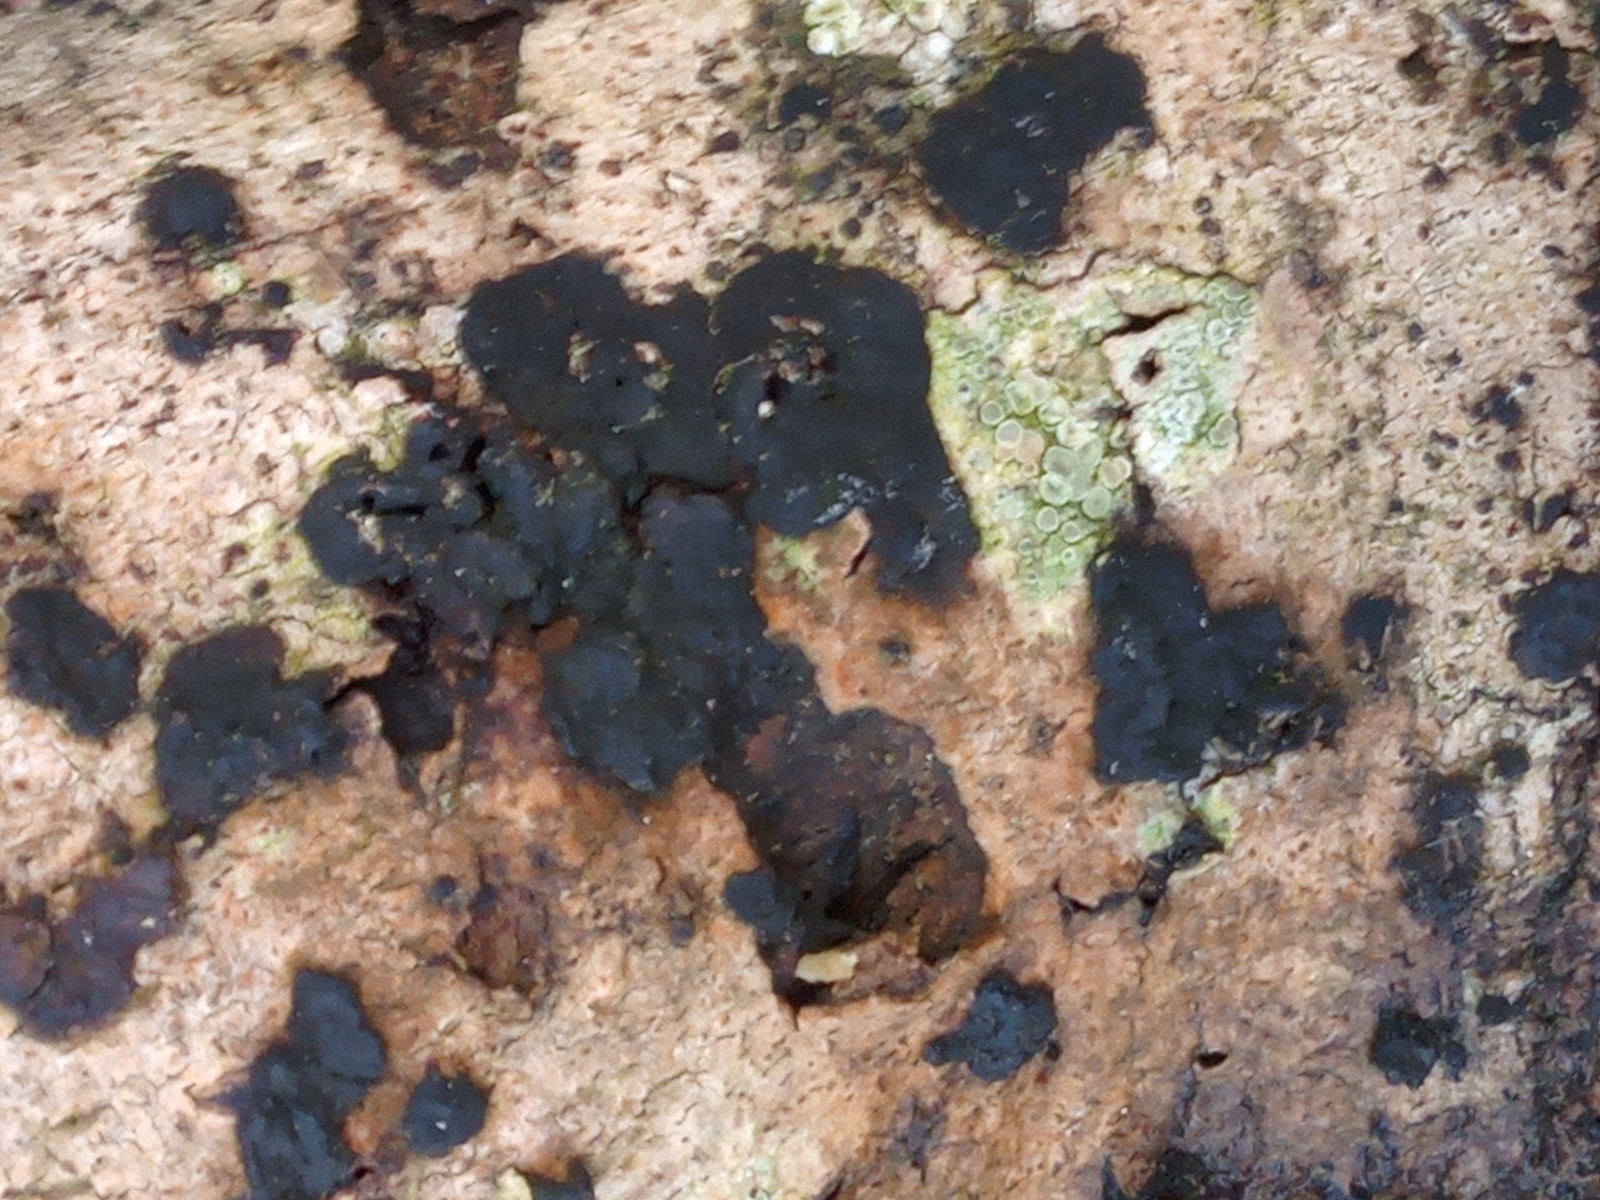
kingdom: Fungi
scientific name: Fungi
